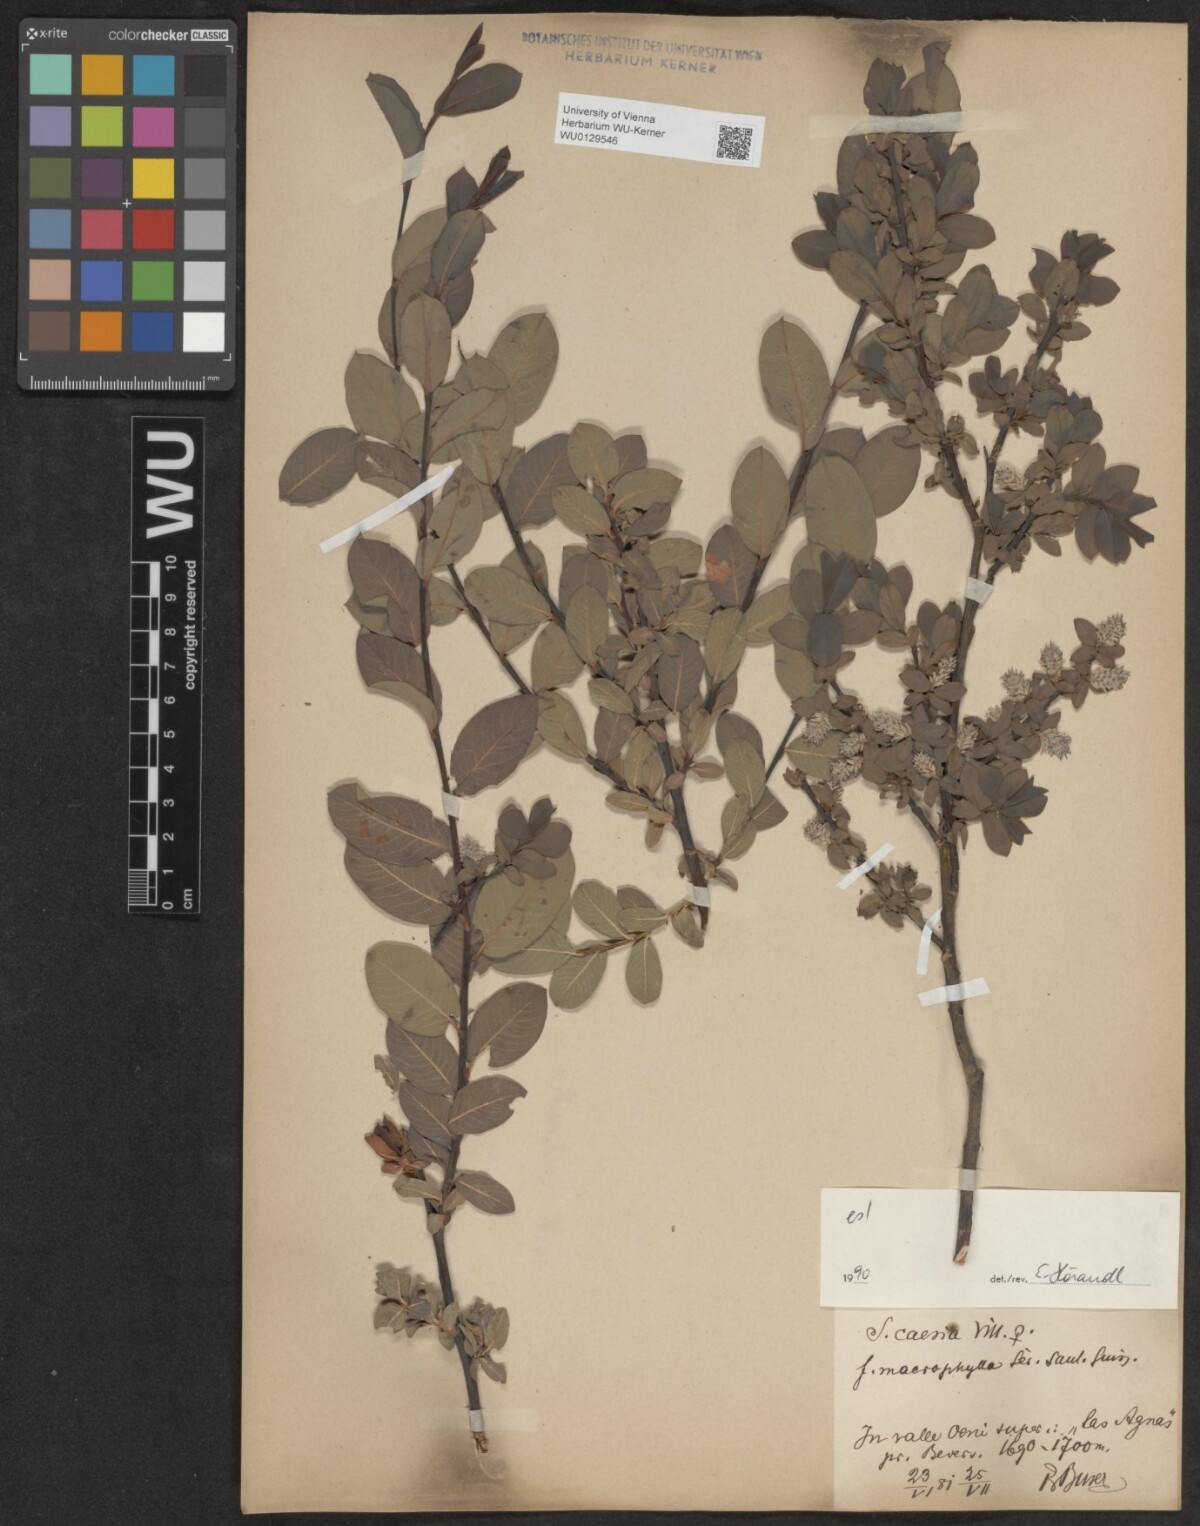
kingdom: Plantae
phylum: Tracheophyta
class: Magnoliopsida
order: Malpighiales
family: Salicaceae
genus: Salix
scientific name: Salix caesia
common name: Blue willow
